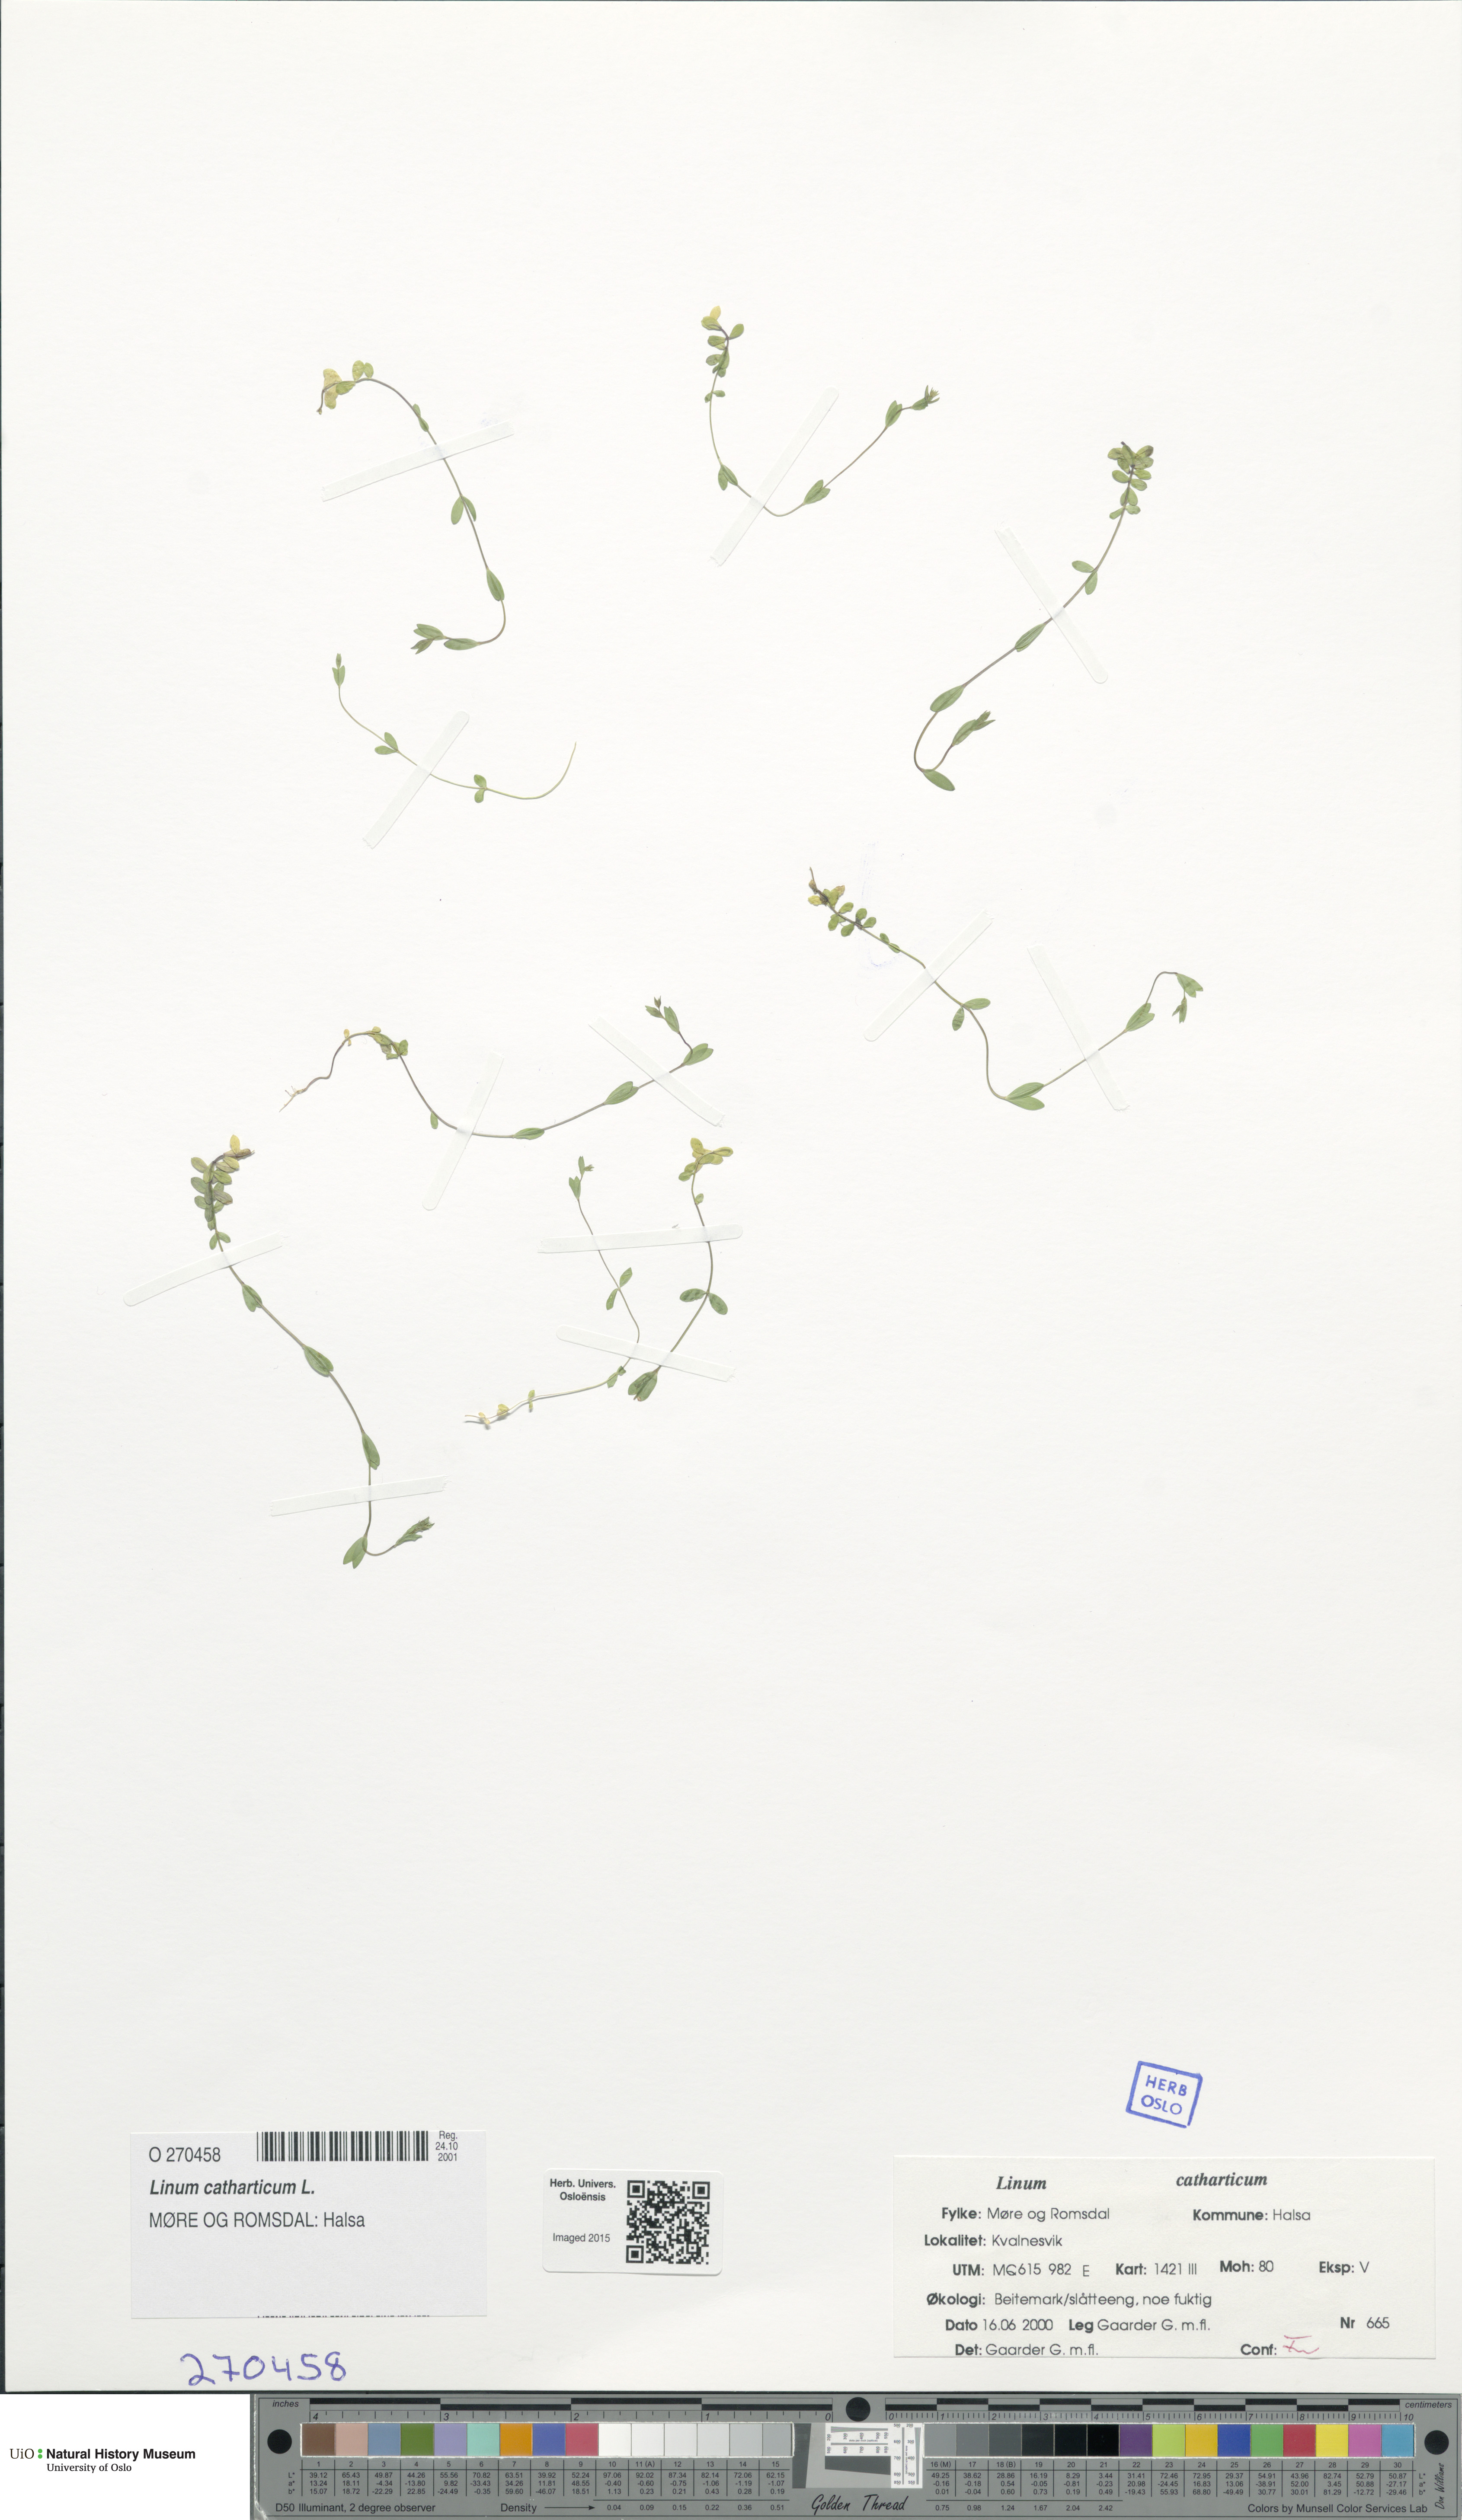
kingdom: Plantae
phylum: Tracheophyta
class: Magnoliopsida
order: Malpighiales
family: Linaceae
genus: Linum
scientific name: Linum catharticum
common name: Fairy flax
